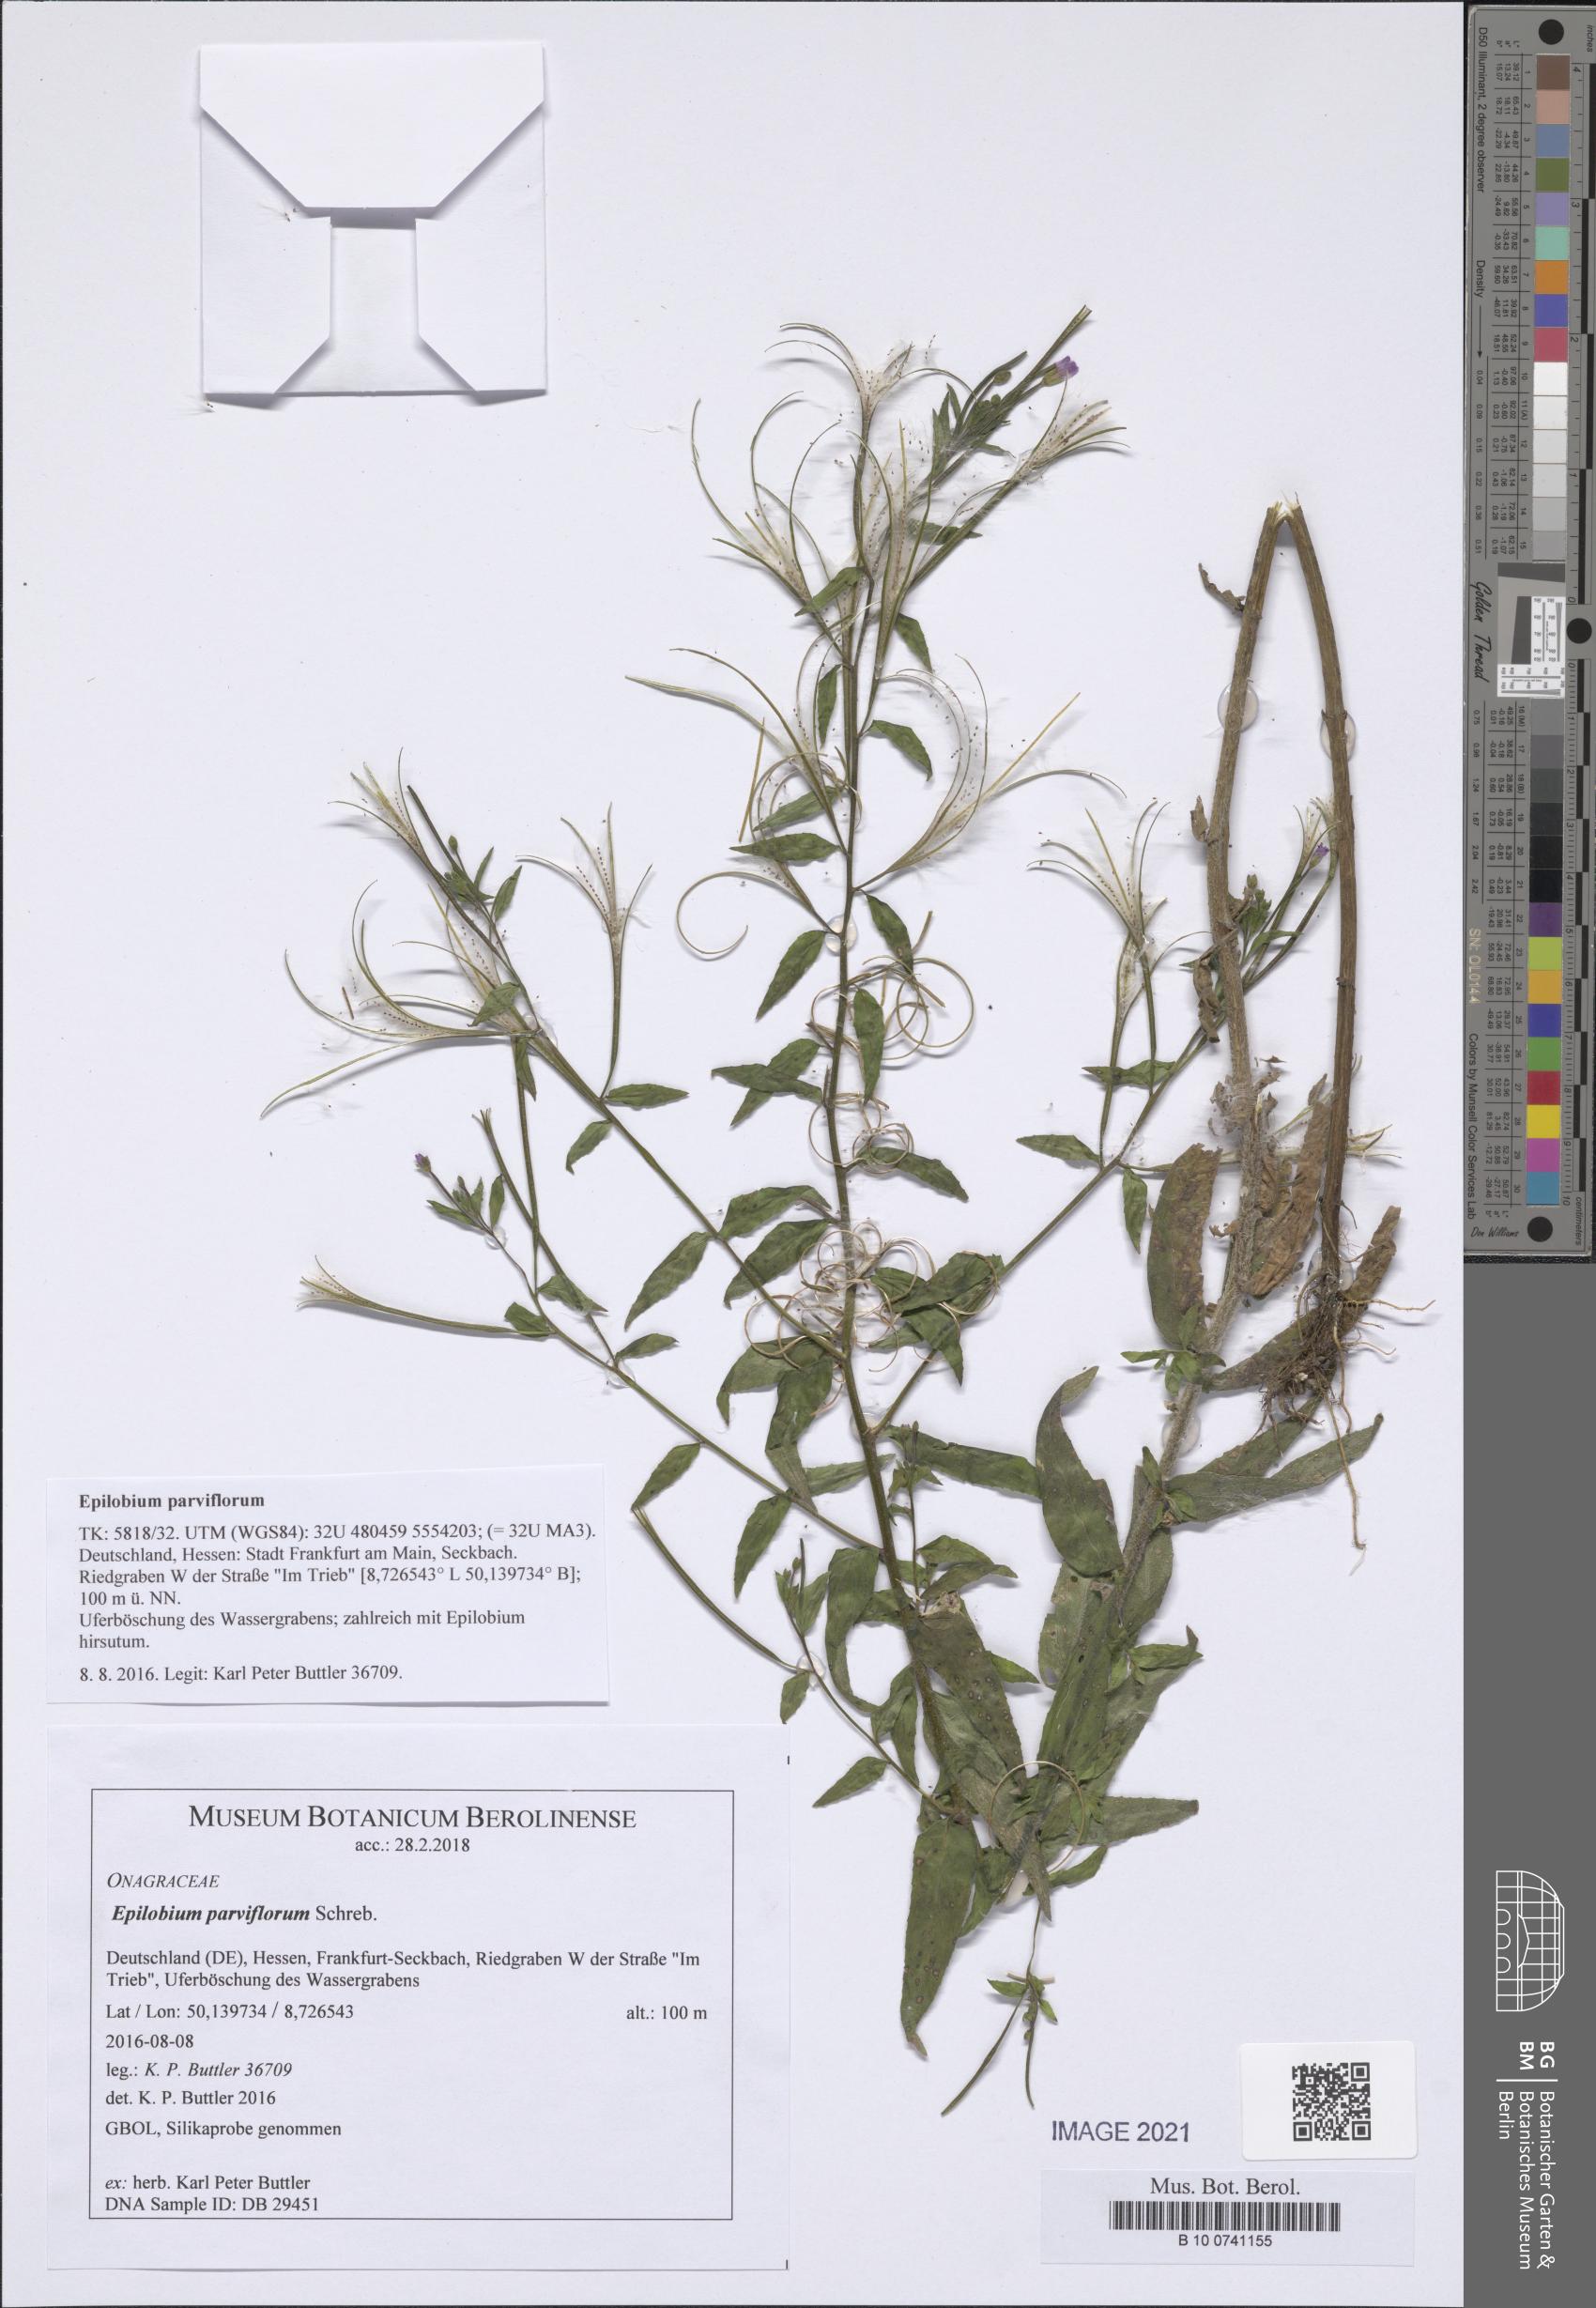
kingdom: Plantae
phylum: Tracheophyta
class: Magnoliopsida
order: Myrtales
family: Onagraceae
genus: Epilobium
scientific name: Epilobium parviflorum
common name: Hoary willowherb
